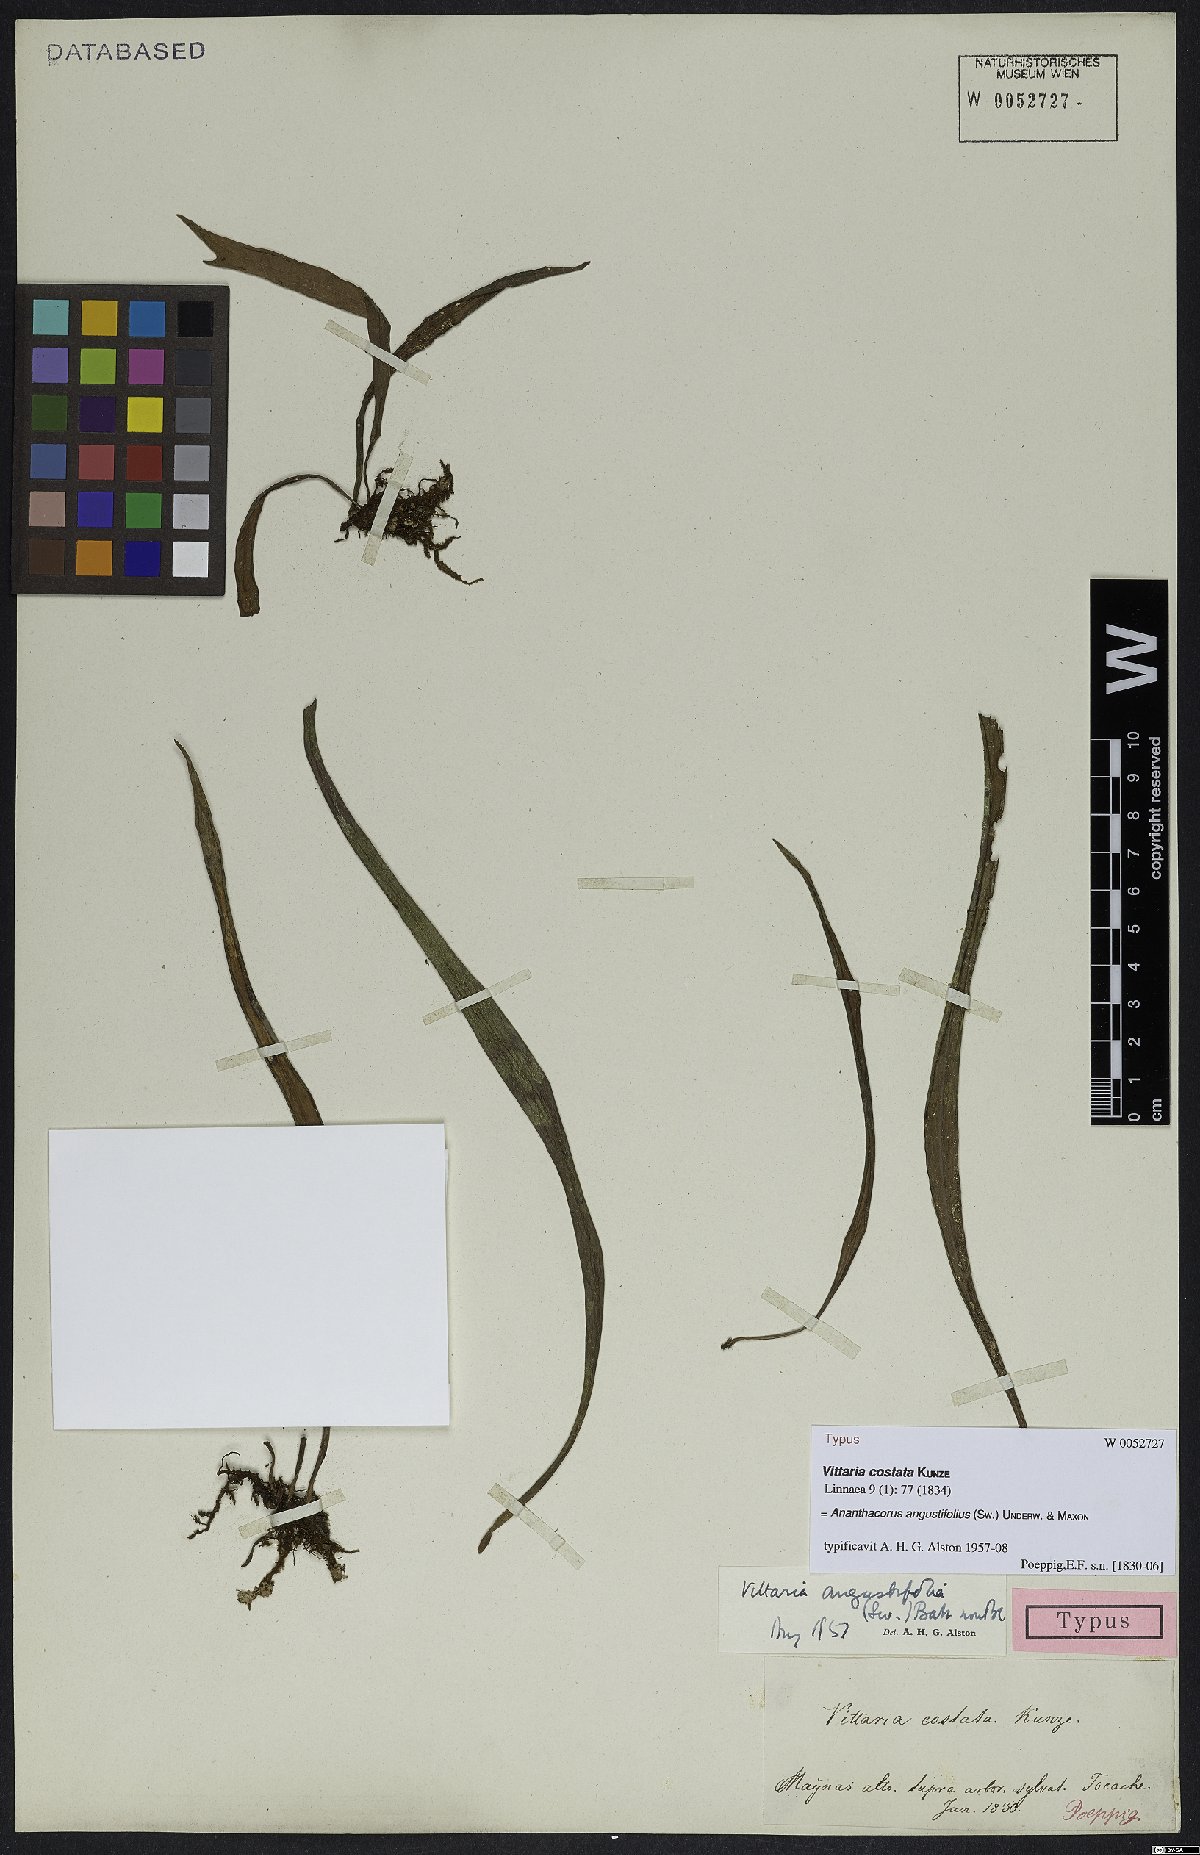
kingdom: Plantae
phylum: Tracheophyta
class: Polypodiopsida
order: Polypodiales
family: Pteridaceae
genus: Ananthacorus
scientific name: Ananthacorus angustifolius
